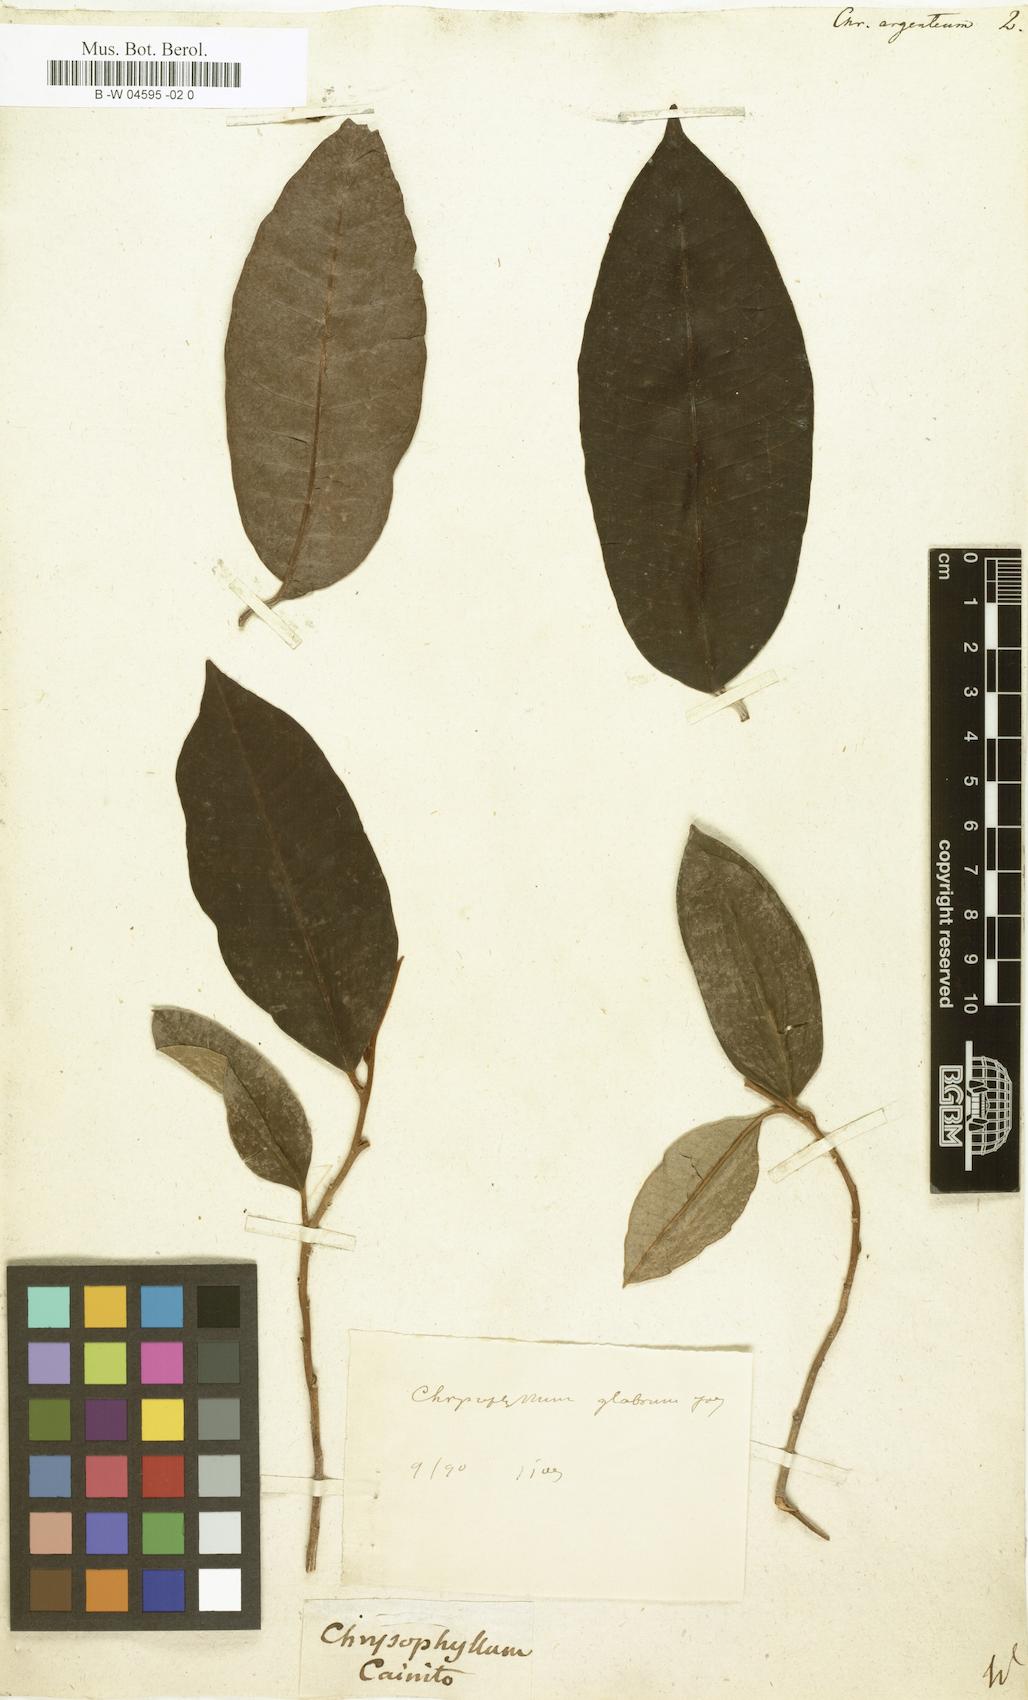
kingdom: Plantae
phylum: Tracheophyta
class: Magnoliopsida
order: Ericales
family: Sapotaceae
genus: Chrysophyllum
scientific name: Chrysophyllum argenteum
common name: Smooth star apple
